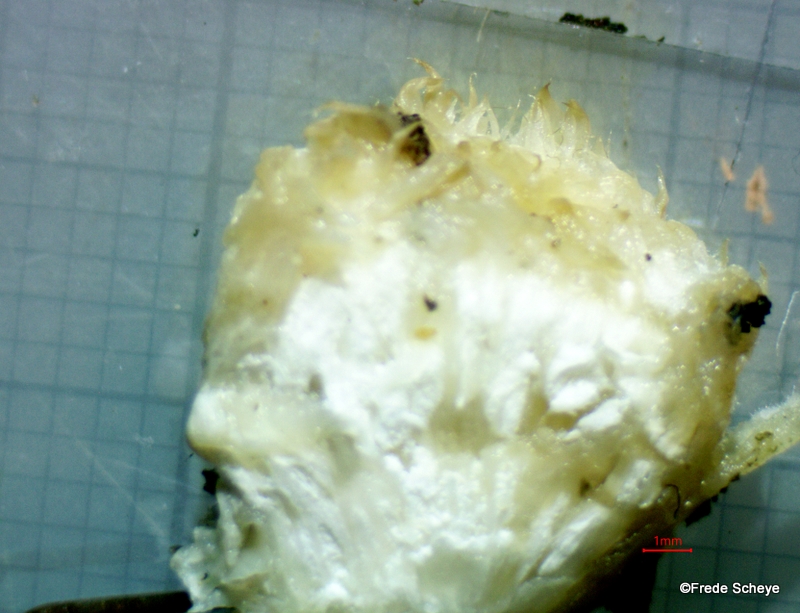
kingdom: Fungi
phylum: Basidiomycota
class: Agaricomycetes
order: Polyporales
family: Dacryobolaceae
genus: Postia
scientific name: Postia ptychogaster
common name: støvende kødporesvamp
